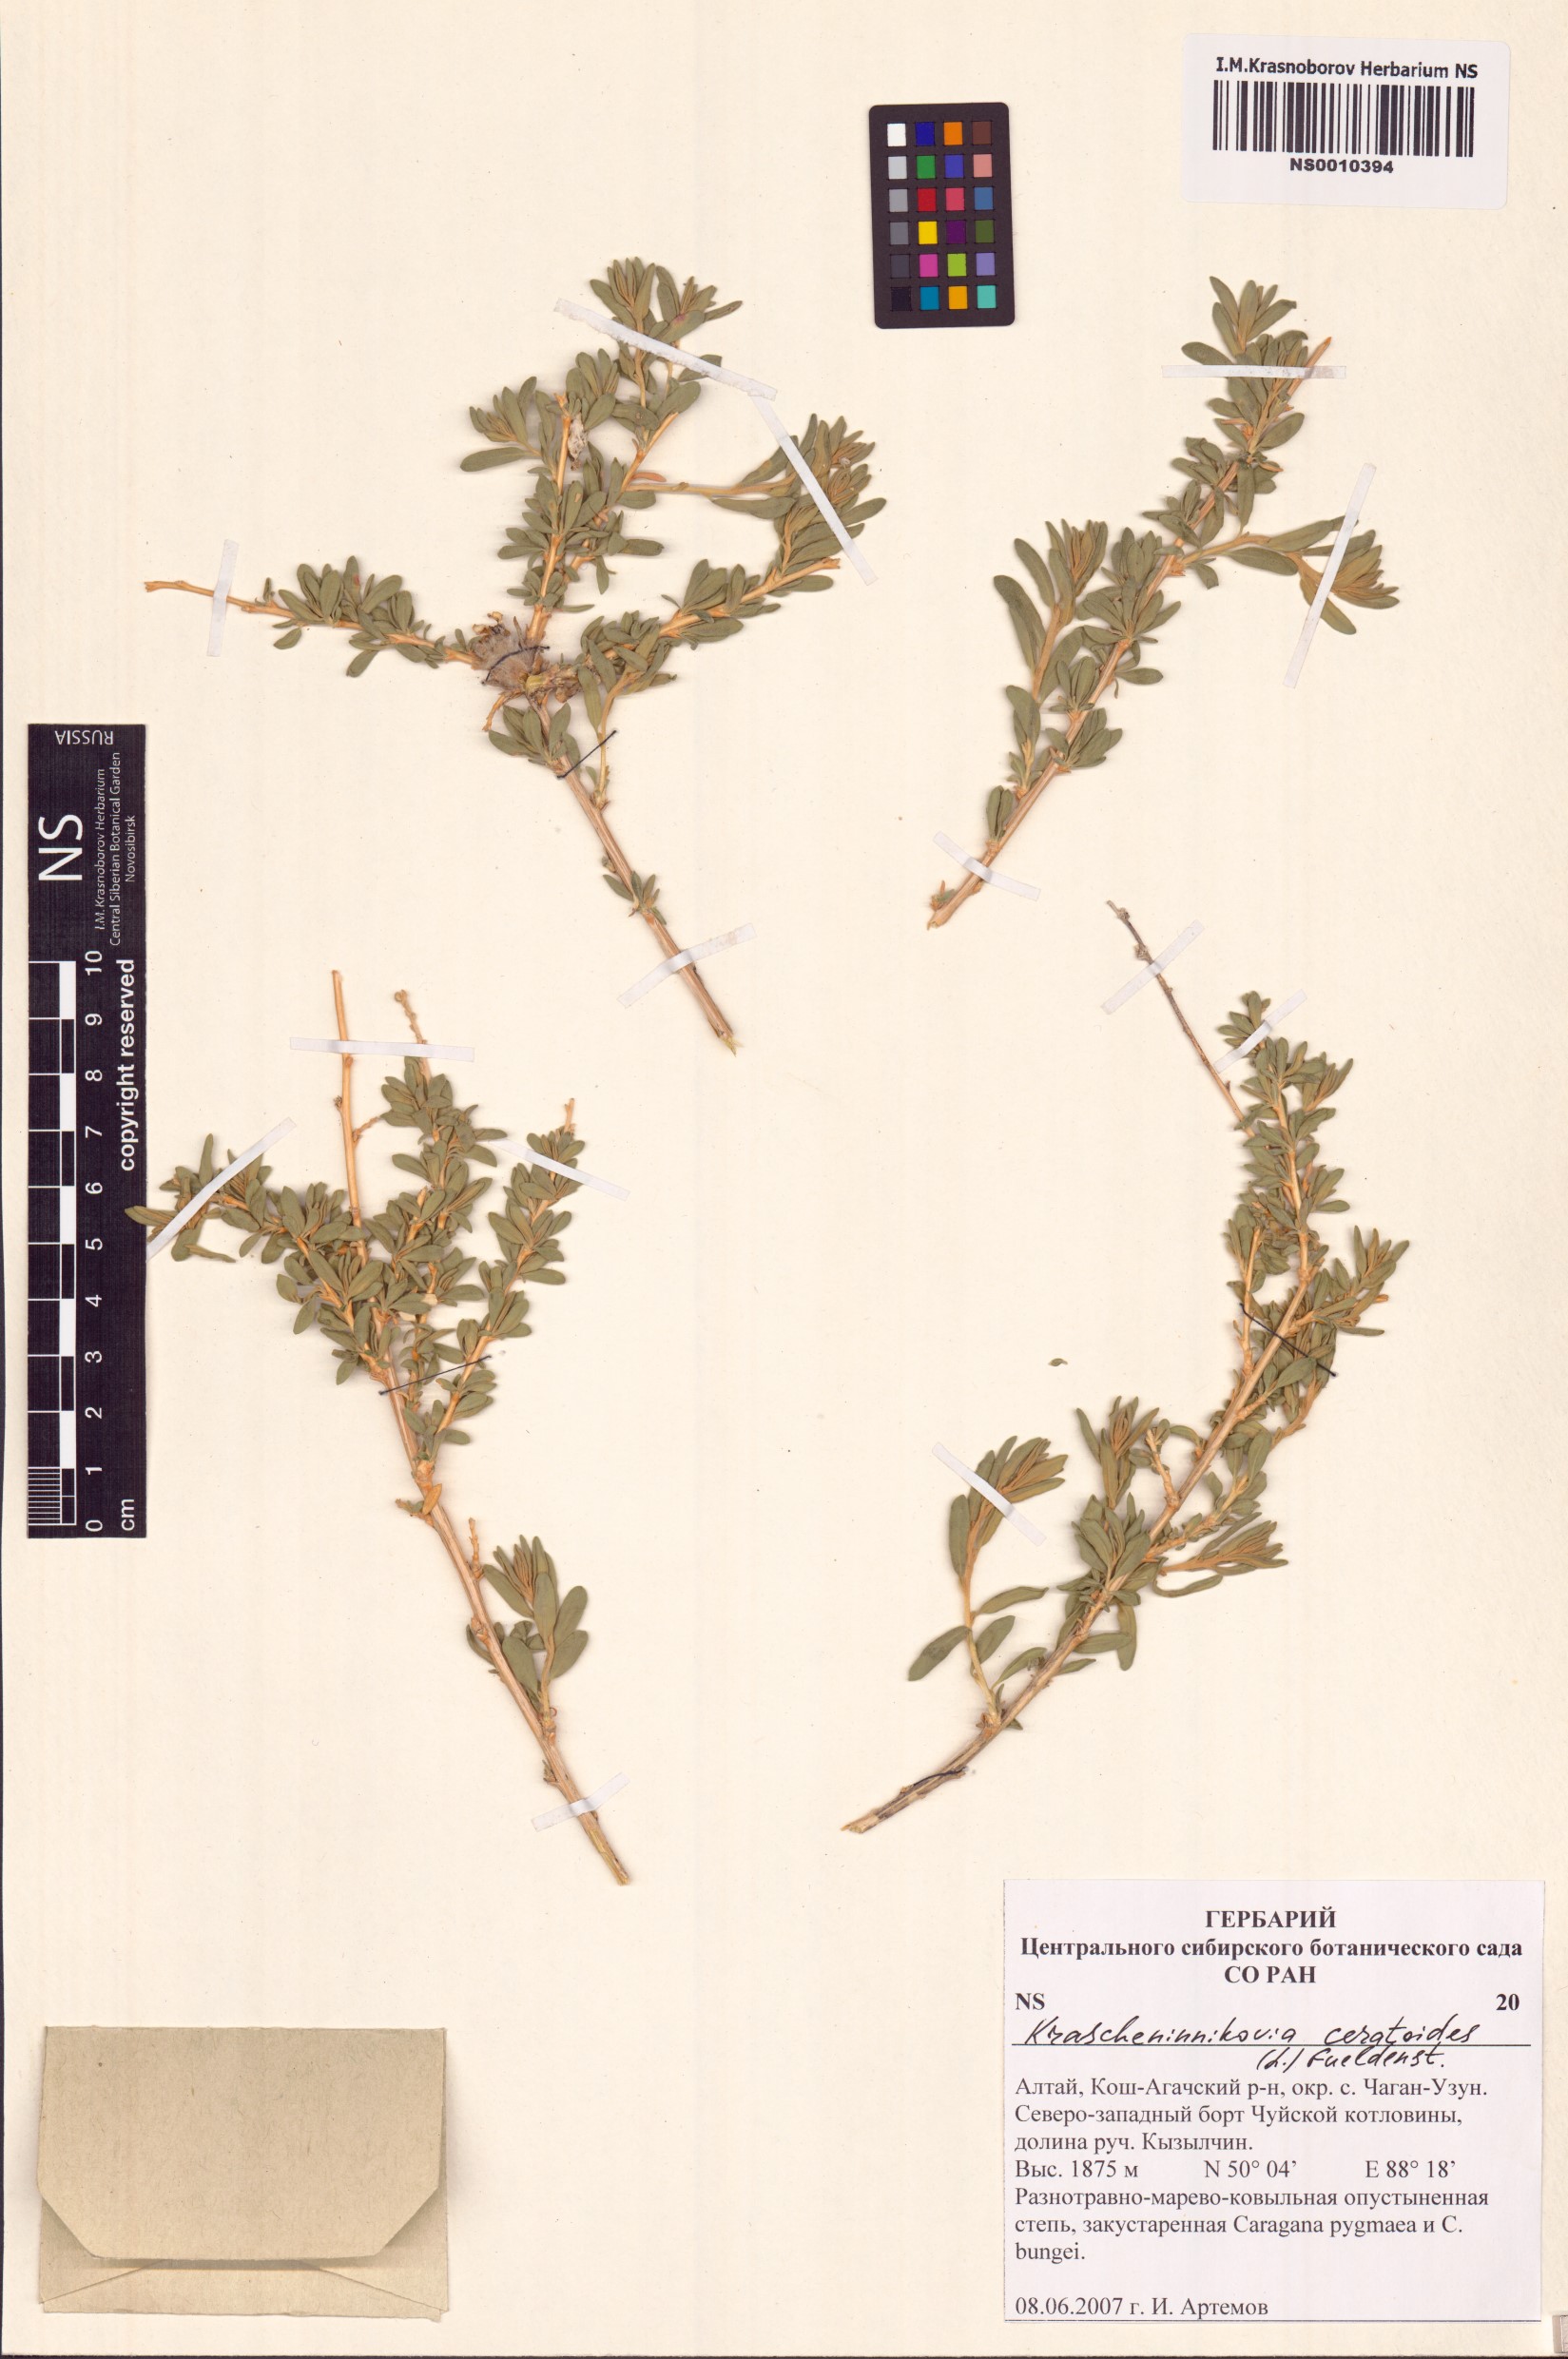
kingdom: Plantae
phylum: Tracheophyta
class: Magnoliopsida
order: Caryophyllales
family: Amaranthaceae
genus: Krascheninnikovia
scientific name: Krascheninnikovia ceratoides
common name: Pamirian winterfat
